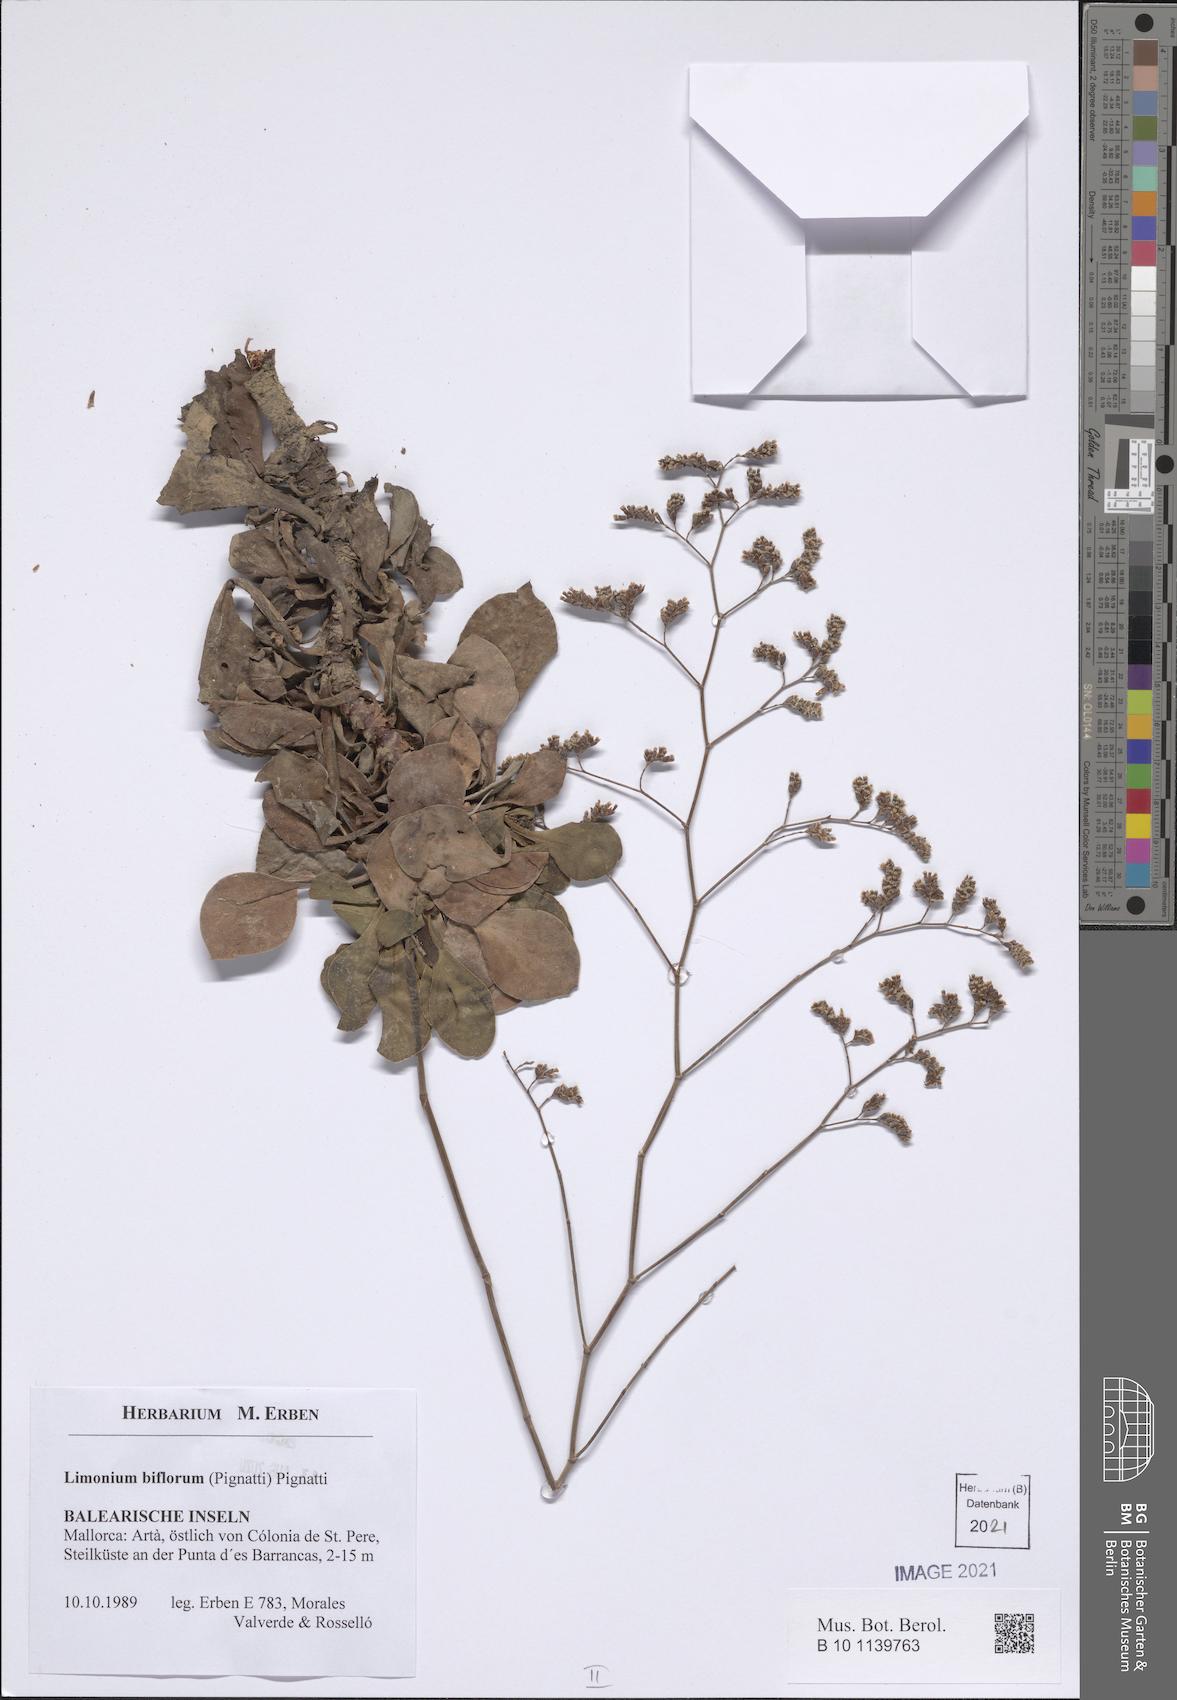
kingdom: Plantae
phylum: Tracheophyta
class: Magnoliopsida
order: Caryophyllales
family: Plumbaginaceae
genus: Limonium
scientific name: Limonium biflorum
